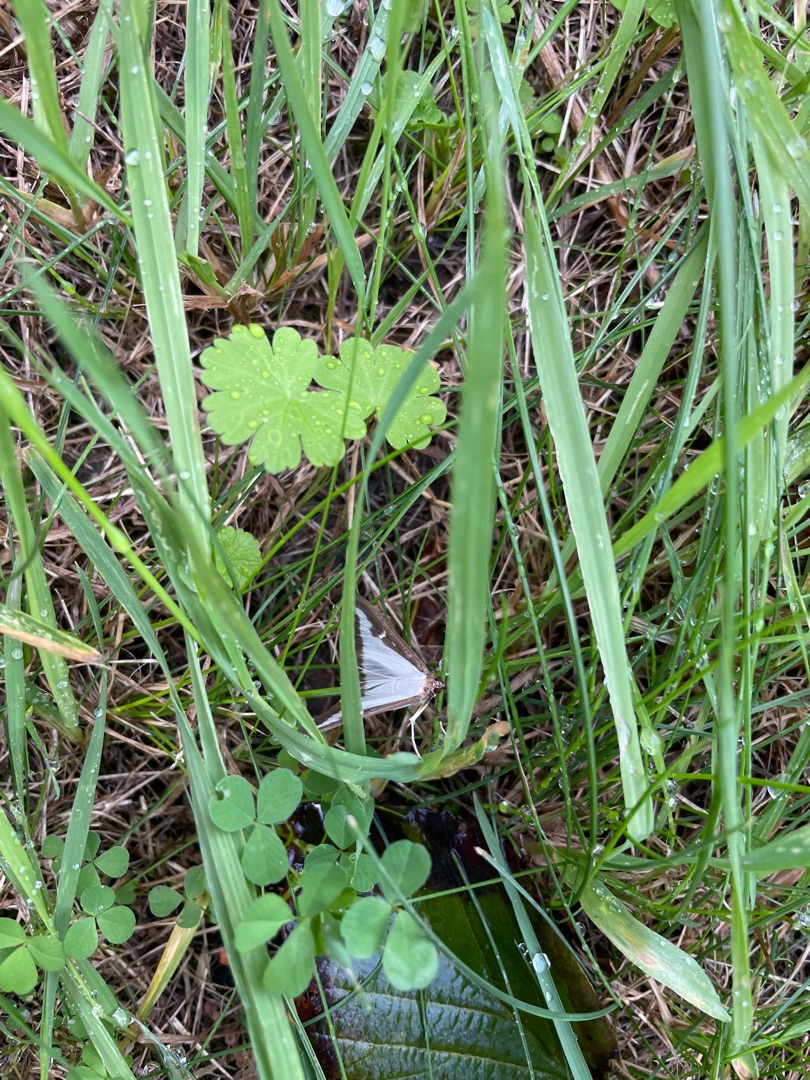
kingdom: Animalia
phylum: Arthropoda
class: Insecta
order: Lepidoptera
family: Crambidae
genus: Cydalima
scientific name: Cydalima perspectalis
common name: Buksbomhalvmøl
